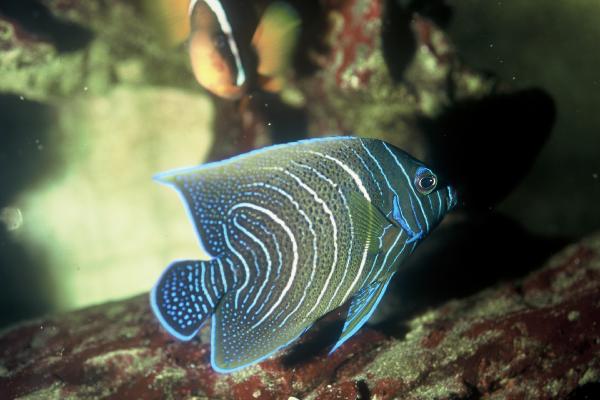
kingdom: Animalia
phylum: Chordata
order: Perciformes
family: Pomacanthidae
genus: Pomacanthus
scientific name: Pomacanthus semicirculatus
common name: Semicircle angelfish
